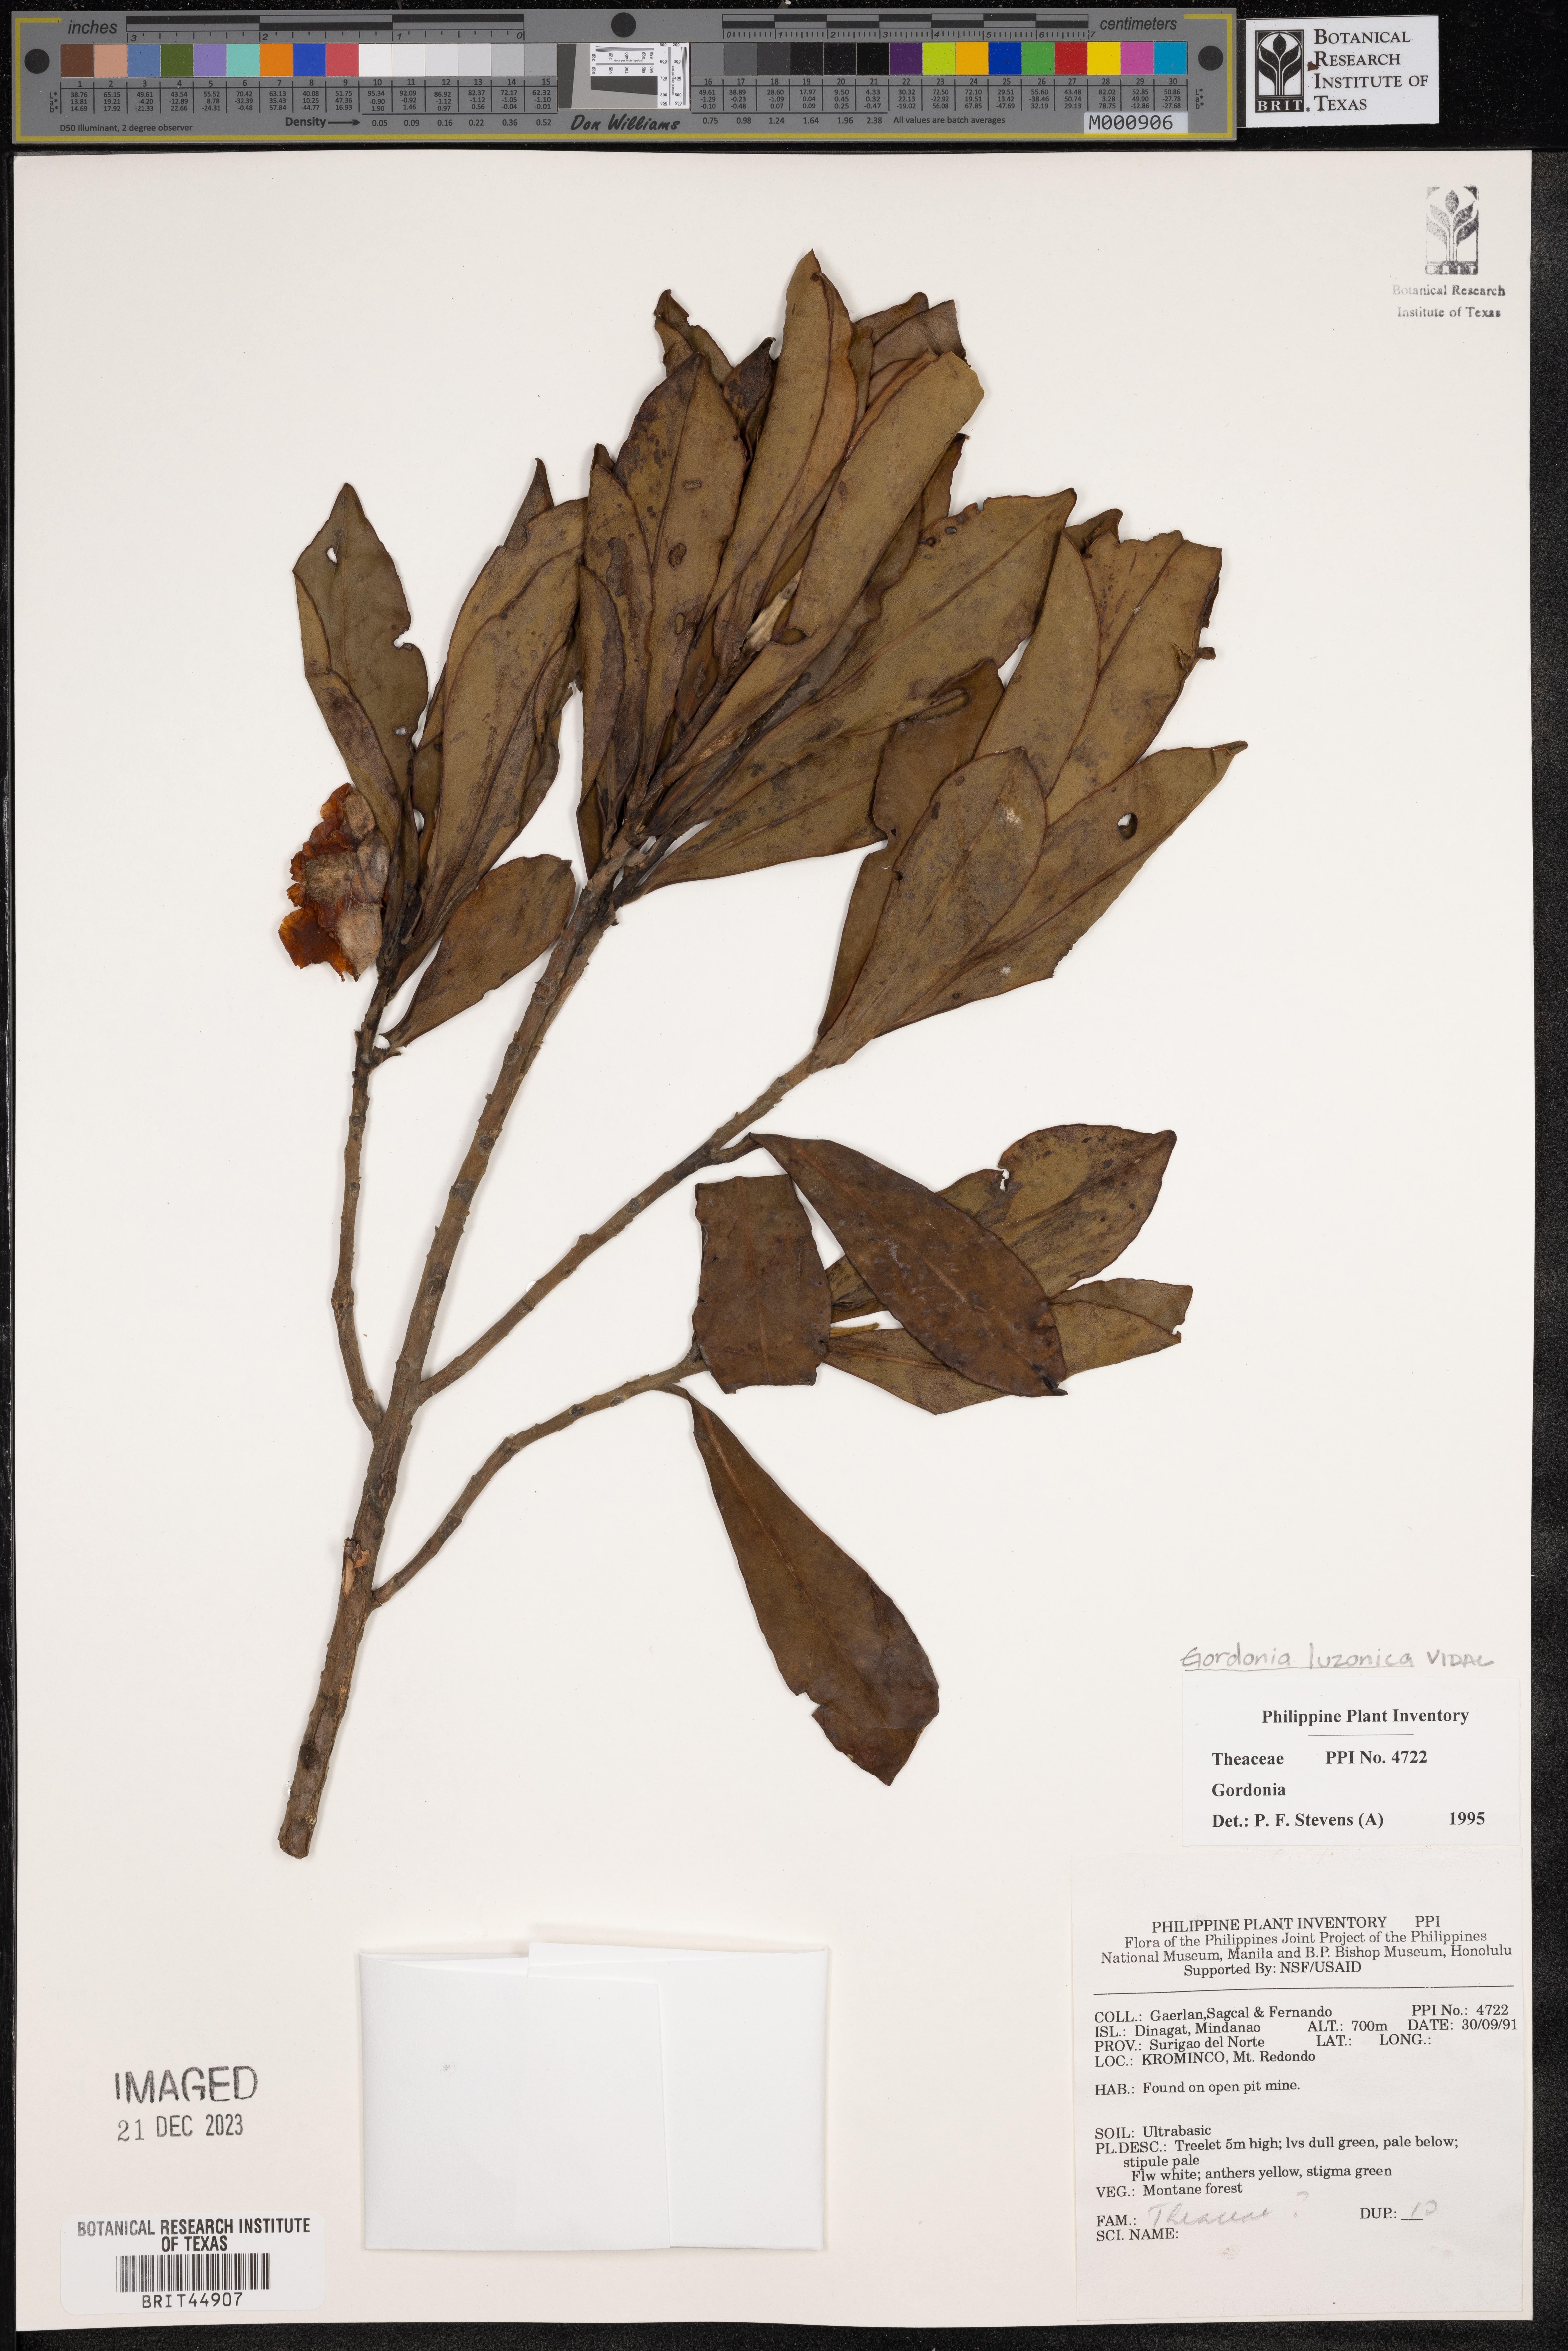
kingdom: Plantae
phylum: Tracheophyta
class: Magnoliopsida
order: Ericales
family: Theaceae
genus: Polyspora
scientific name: Polyspora luzonica
